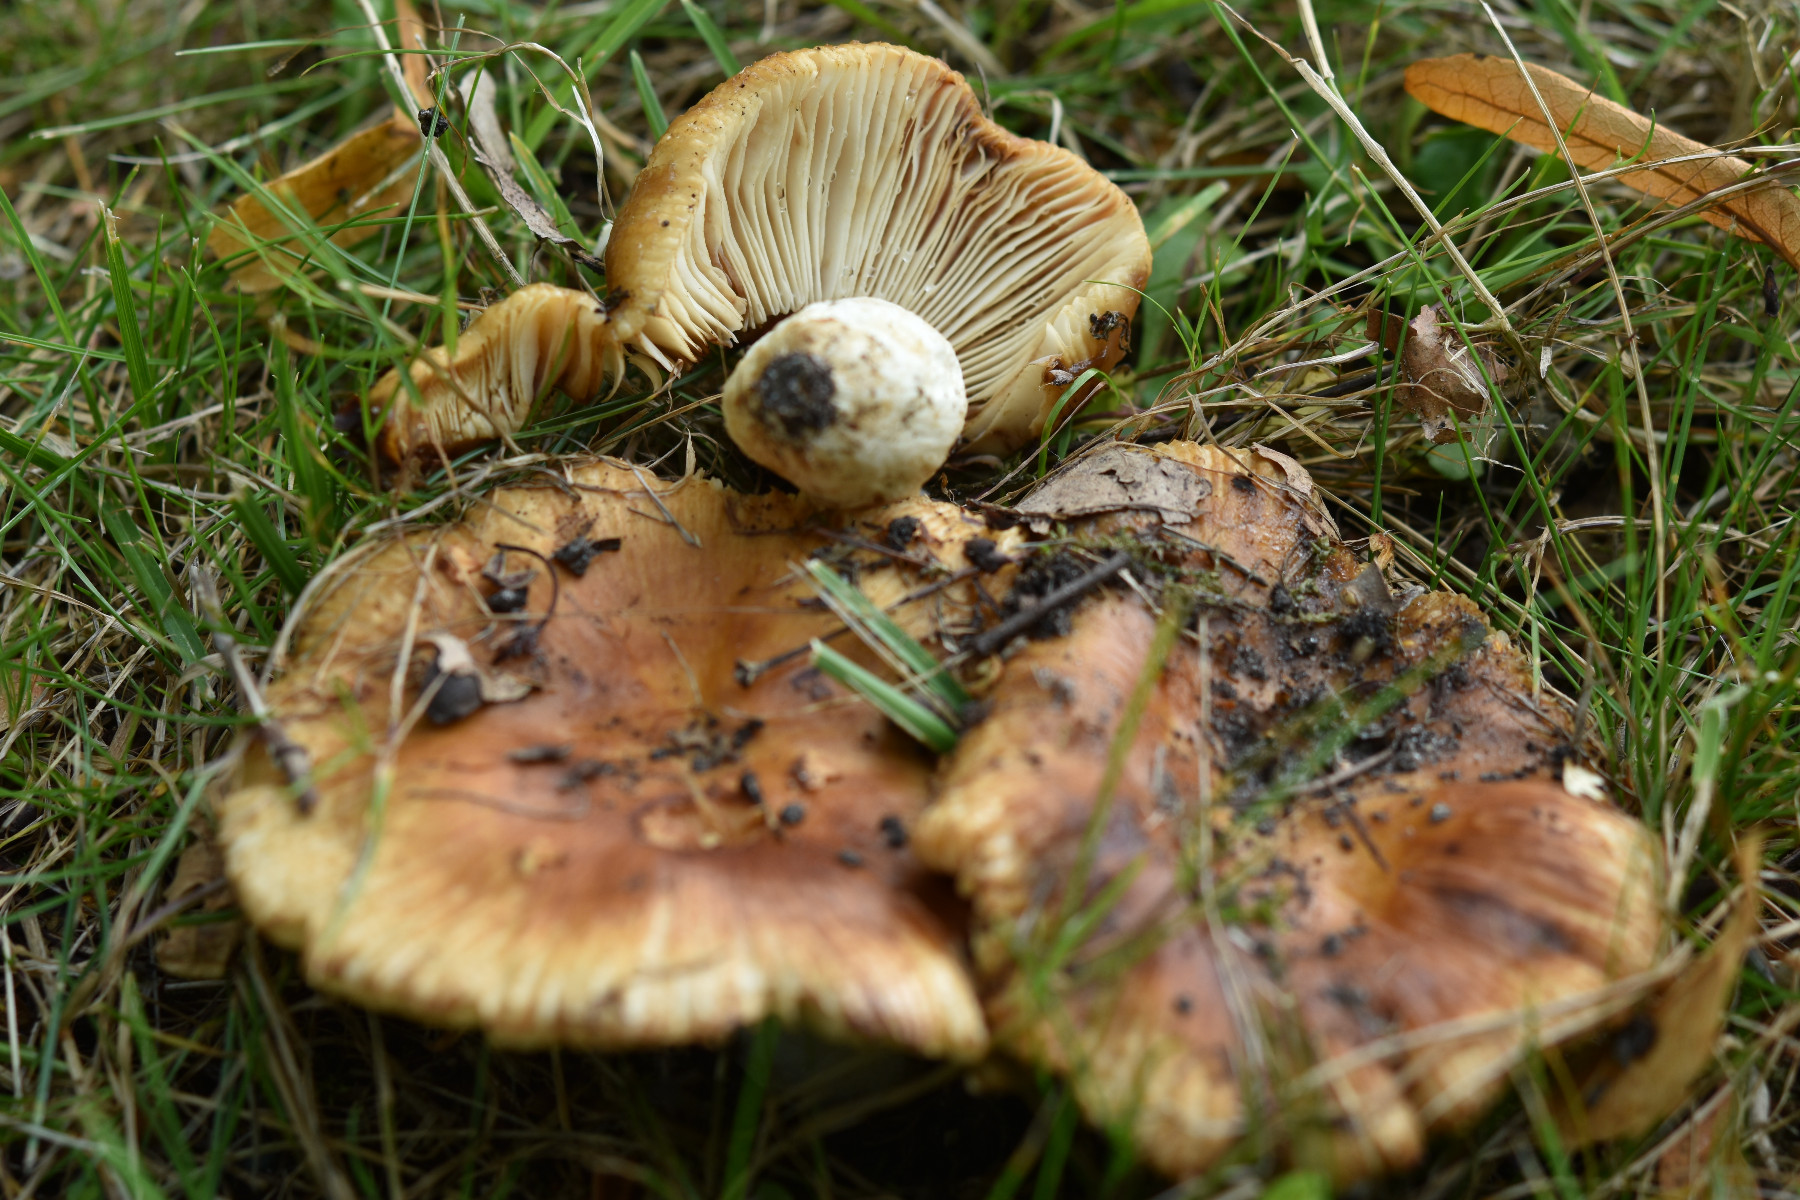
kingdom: Fungi
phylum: Basidiomycota
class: Agaricomycetes
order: Russulales
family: Russulaceae
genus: Russula
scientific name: Russula foetens
